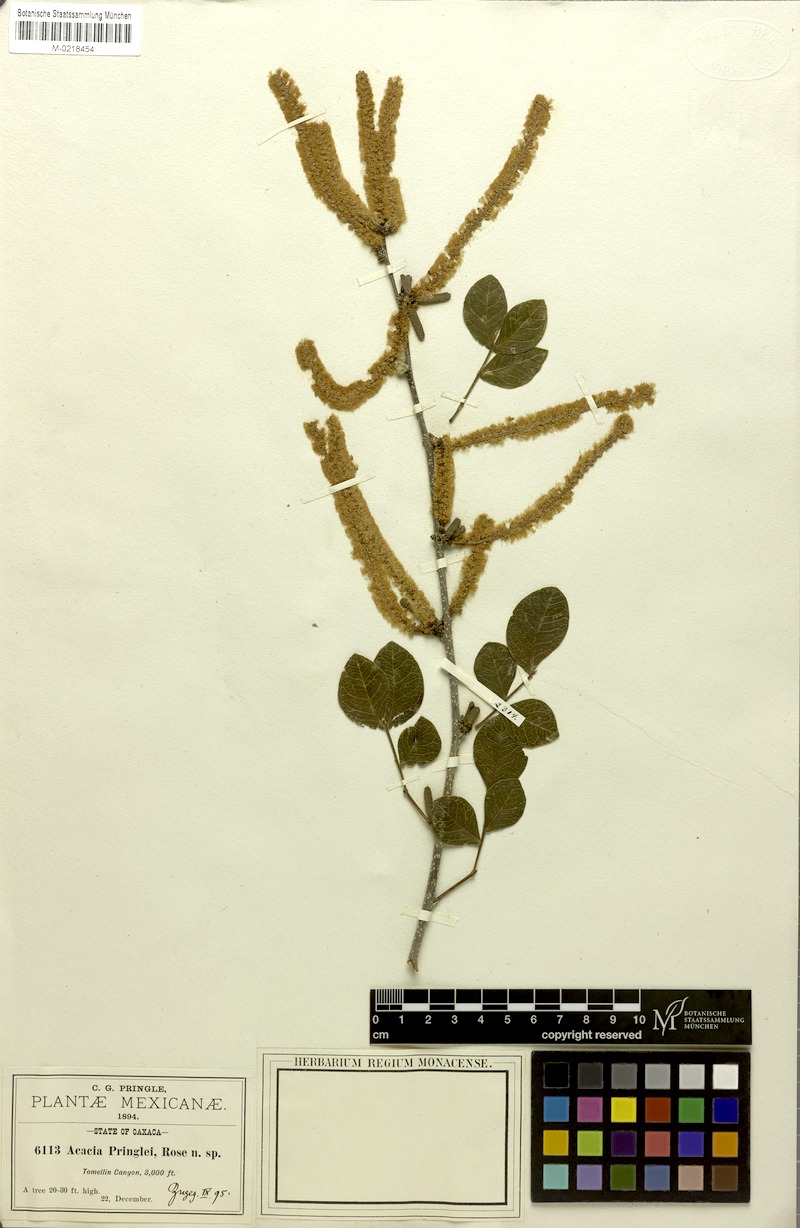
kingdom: Plantae
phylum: Tracheophyta
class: Magnoliopsida
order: Fabales
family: Fabaceae
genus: Vachellia
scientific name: Vachellia pringlei
